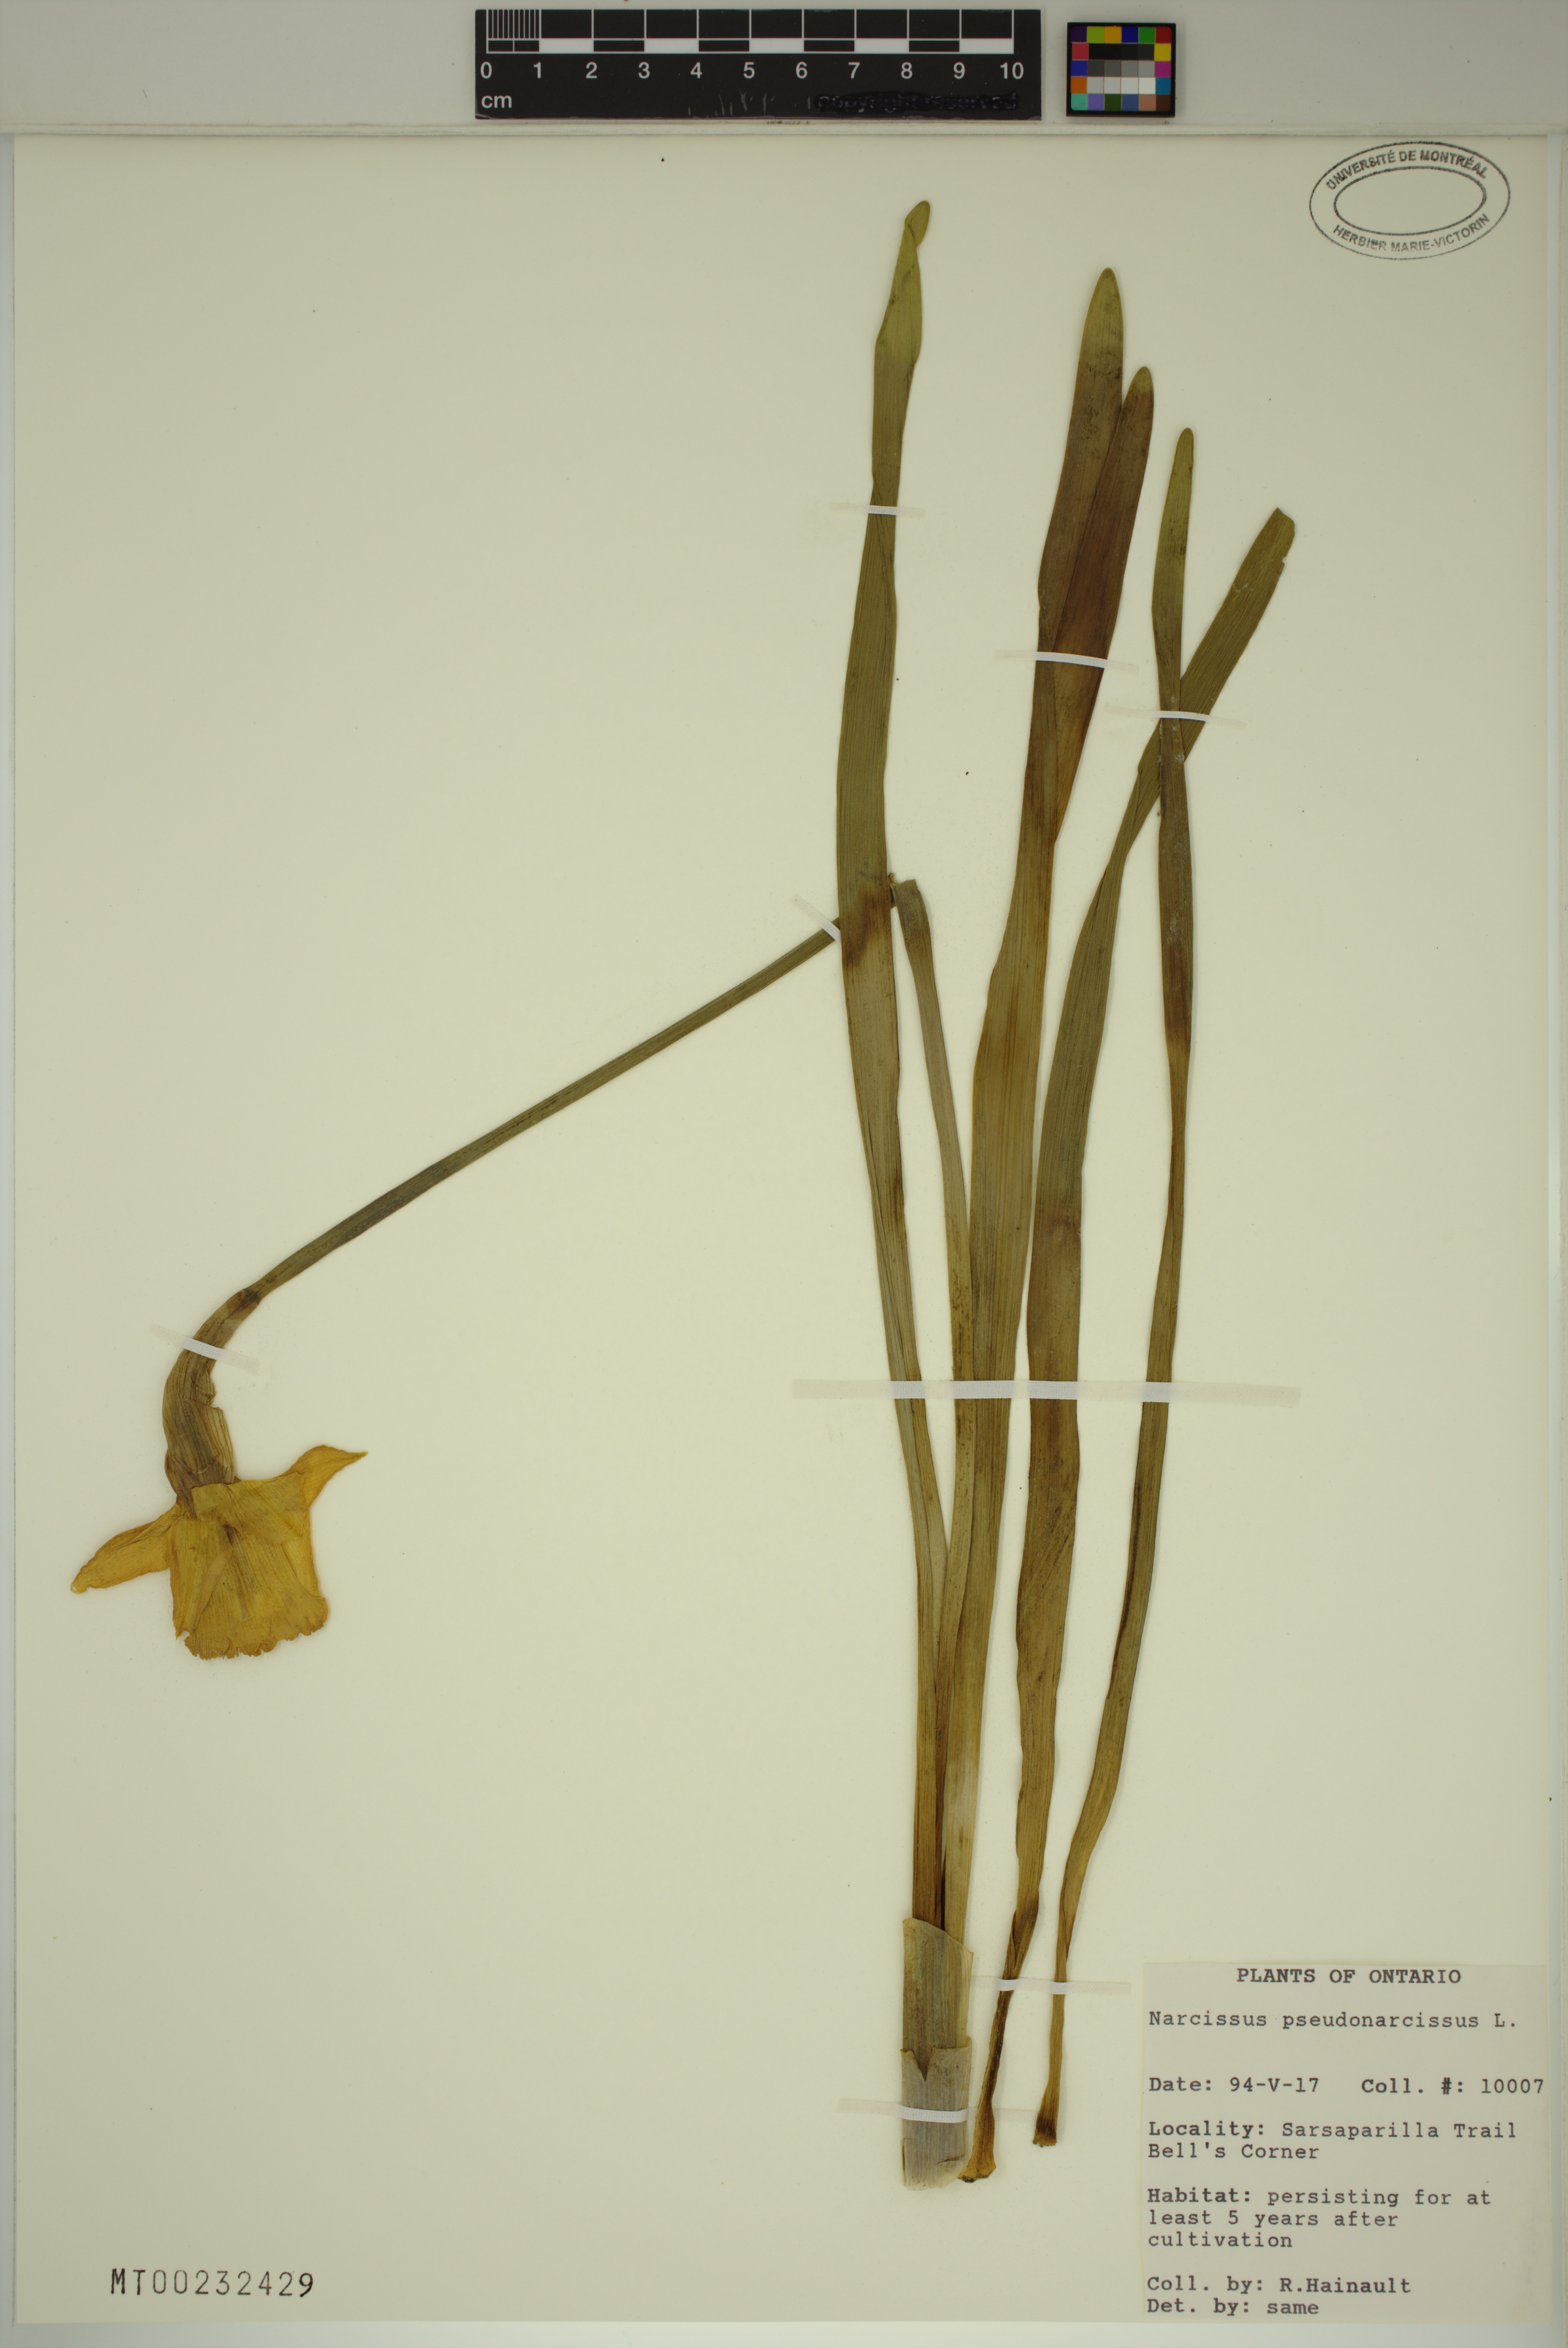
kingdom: Plantae
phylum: Tracheophyta
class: Liliopsida
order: Asparagales
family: Amaryllidaceae
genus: Narcissus
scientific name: Narcissus pseudonarcissus
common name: Daffodil
